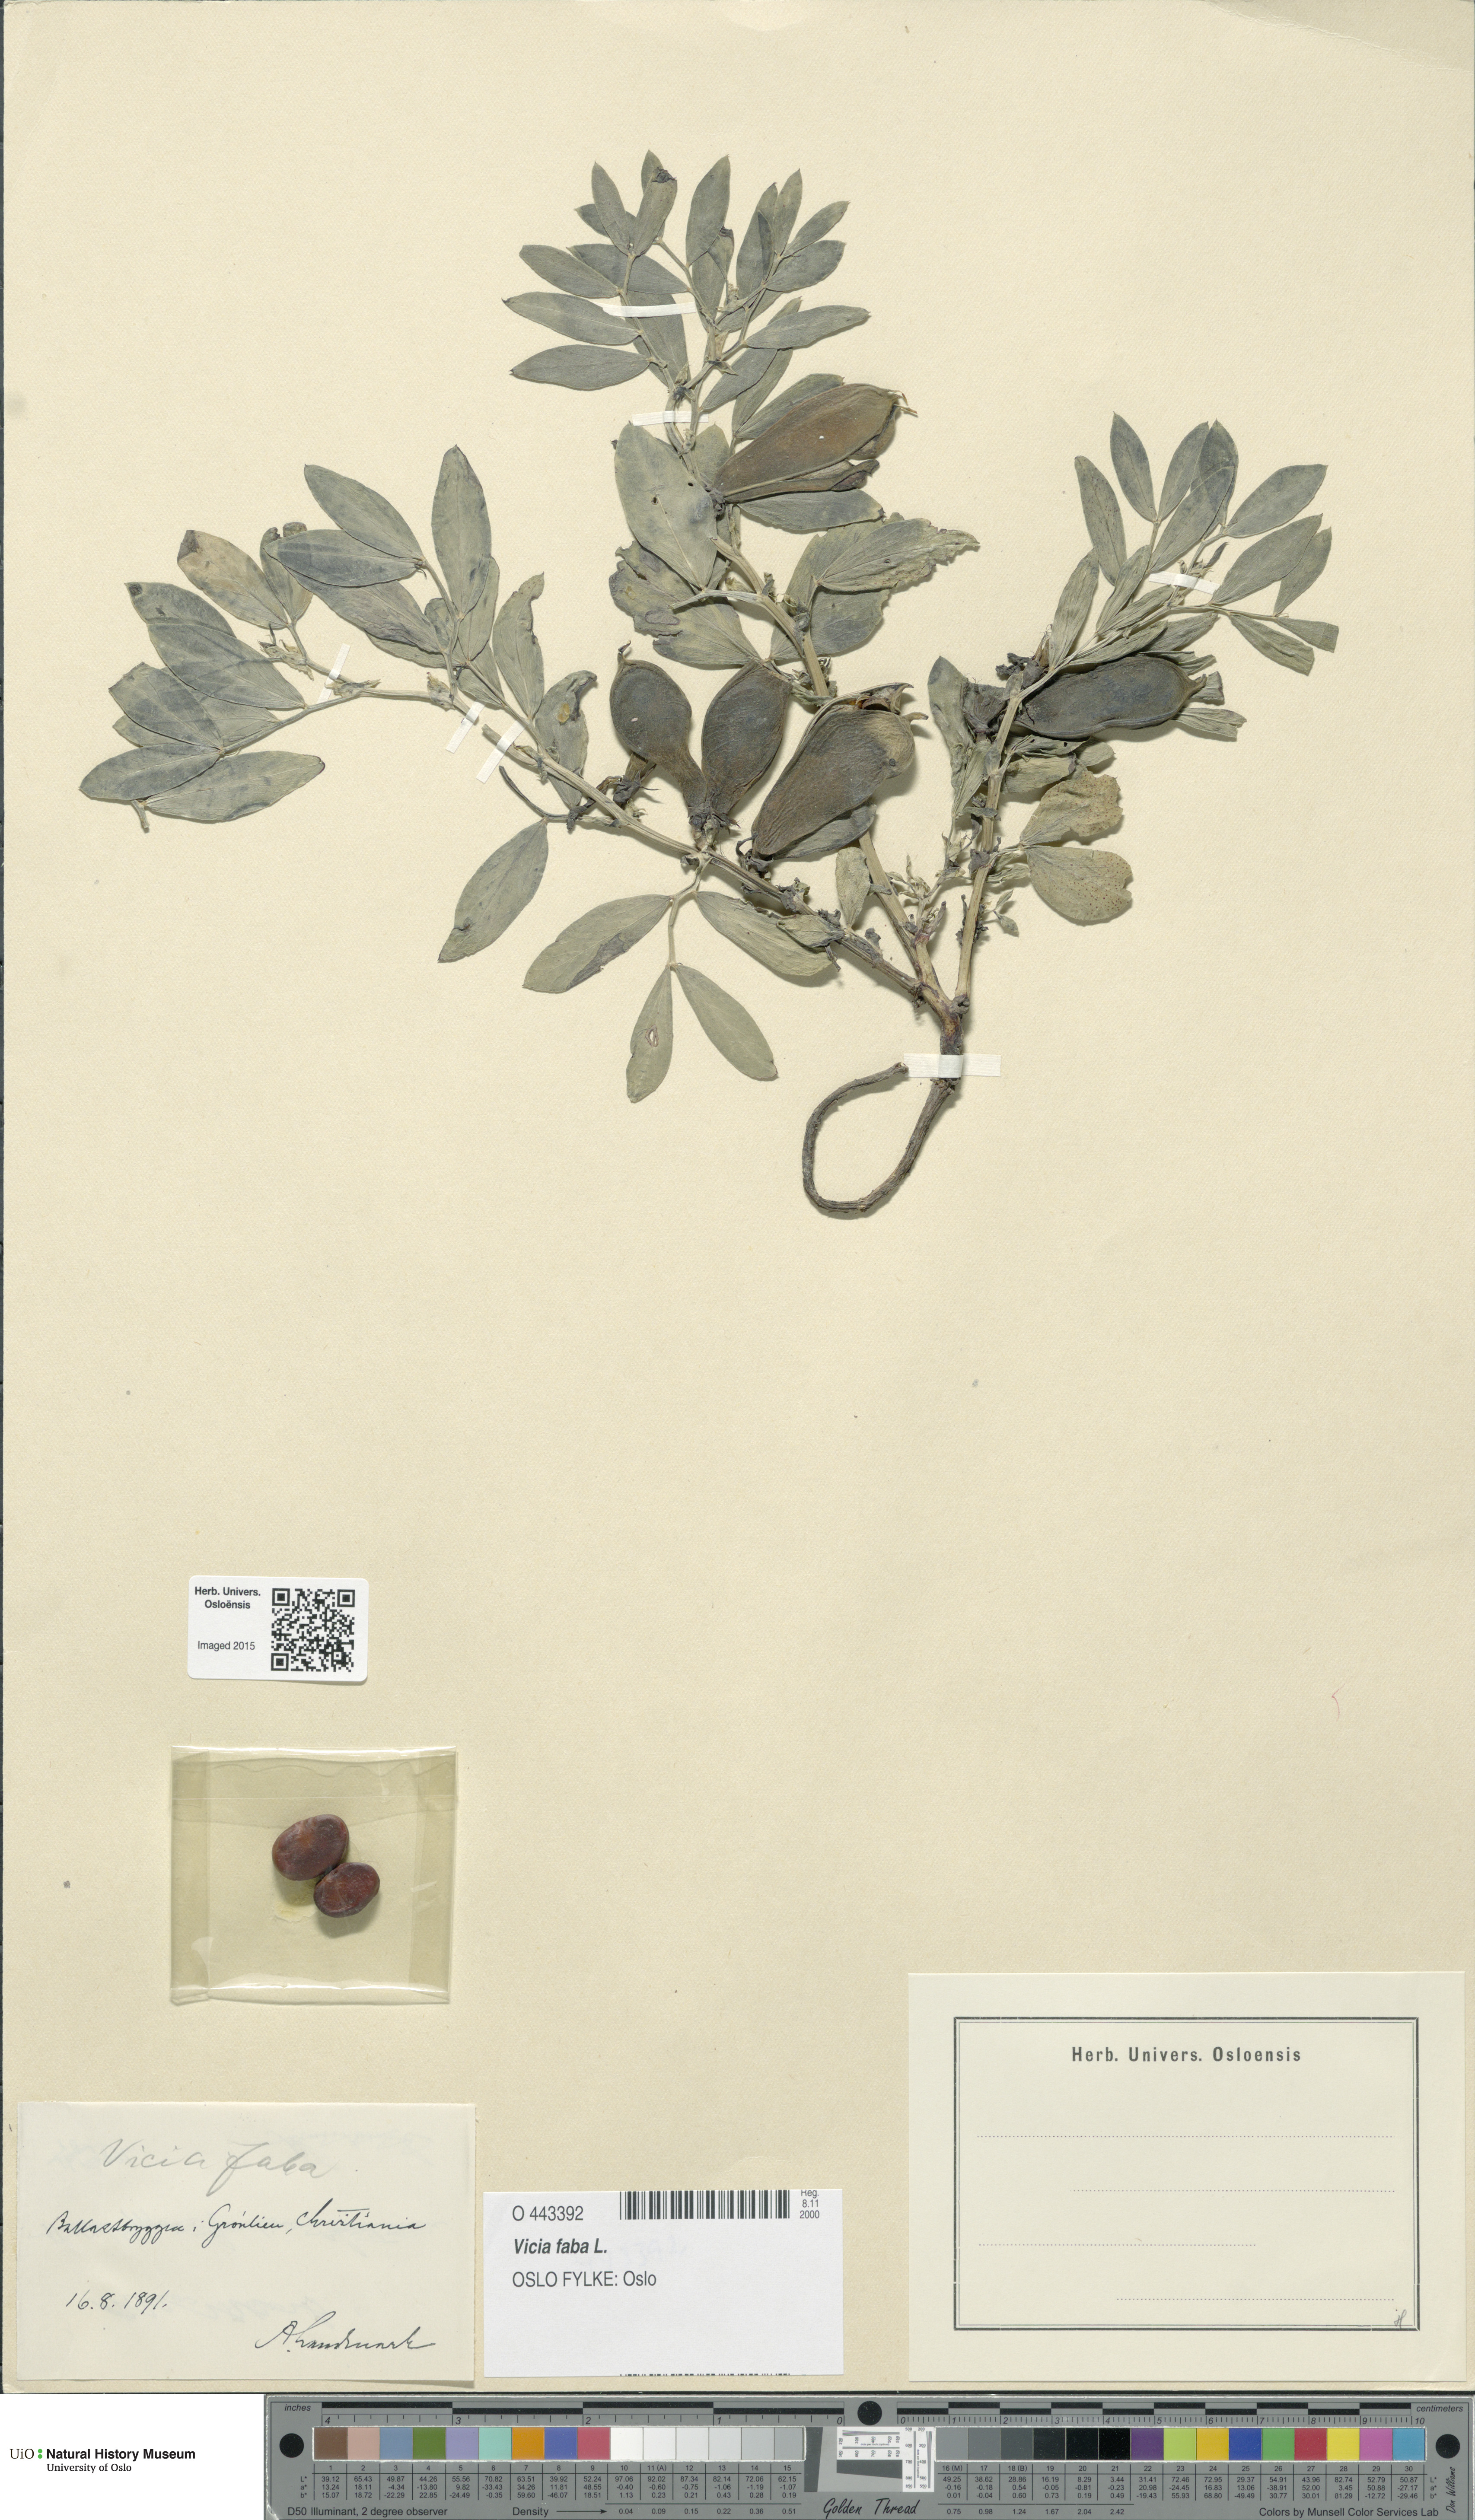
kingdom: Plantae
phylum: Tracheophyta
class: Magnoliopsida
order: Fabales
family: Fabaceae
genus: Vicia
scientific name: Vicia faba
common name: Broad bean
